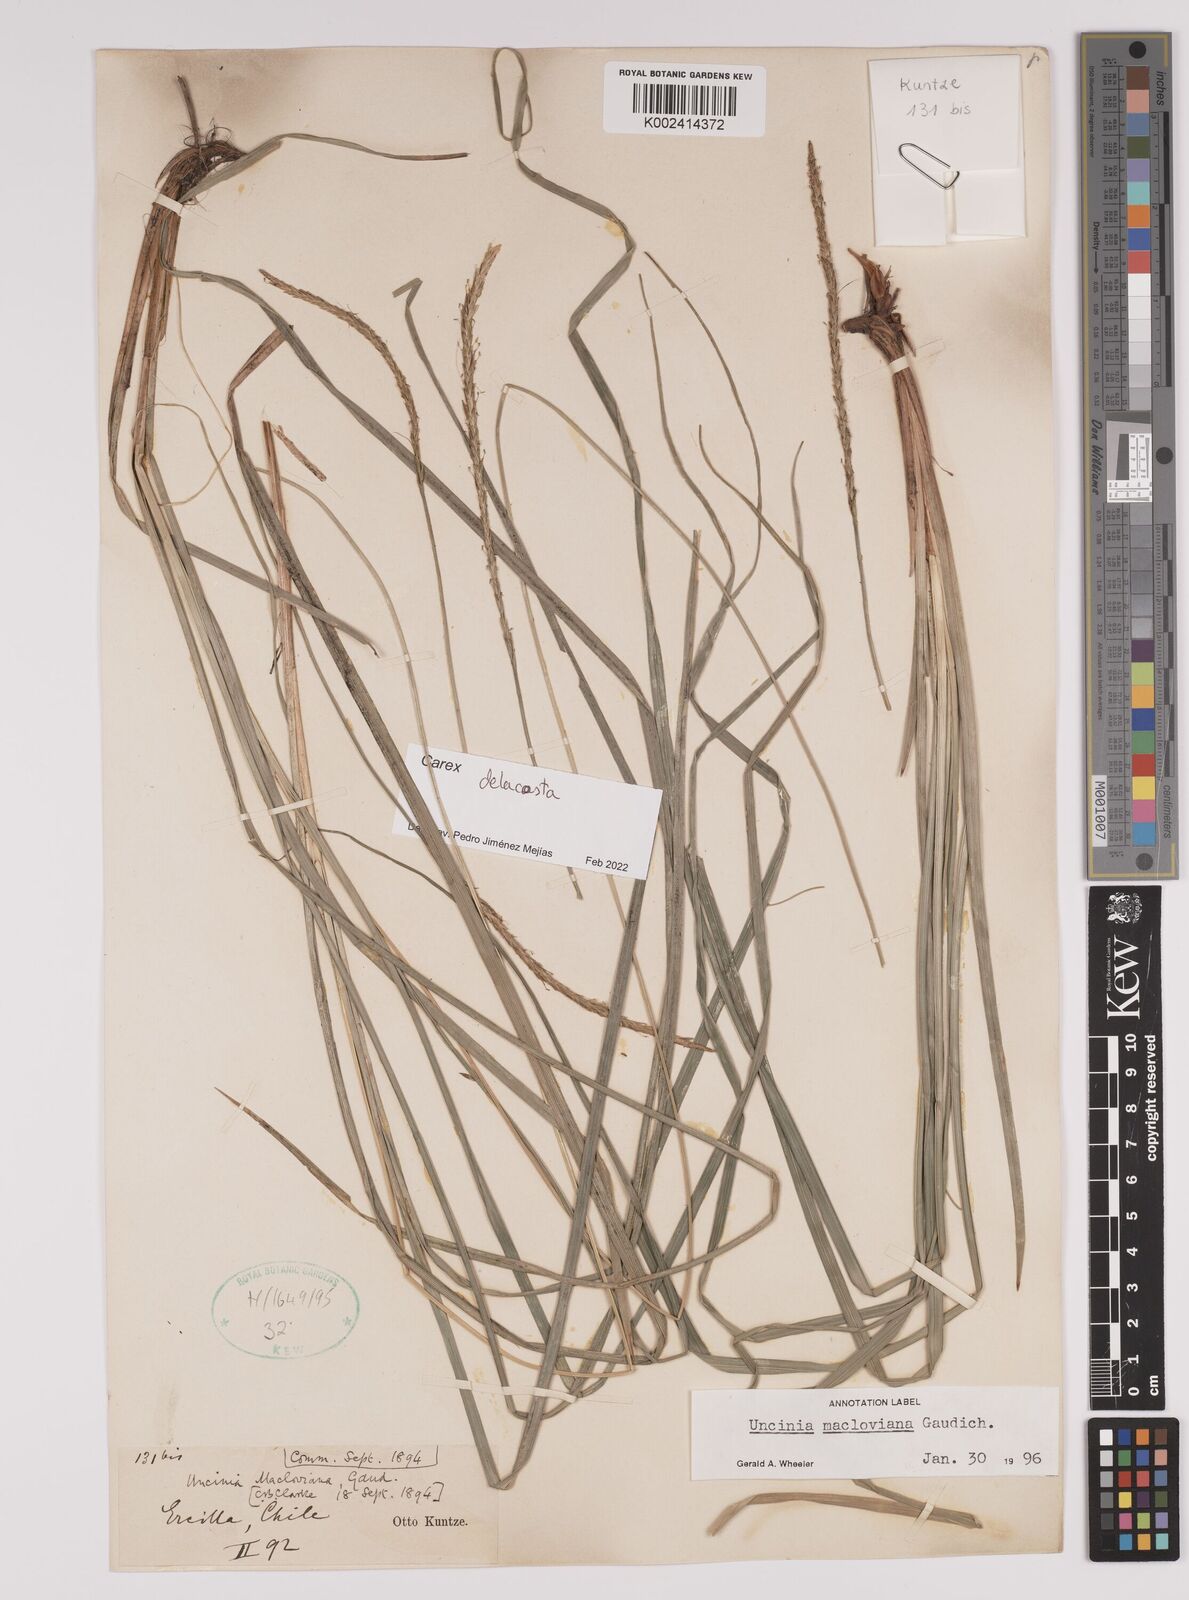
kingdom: Plantae
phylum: Tracheophyta
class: Liliopsida
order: Poales
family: Cyperaceae
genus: Carex
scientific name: Carex delacosta
